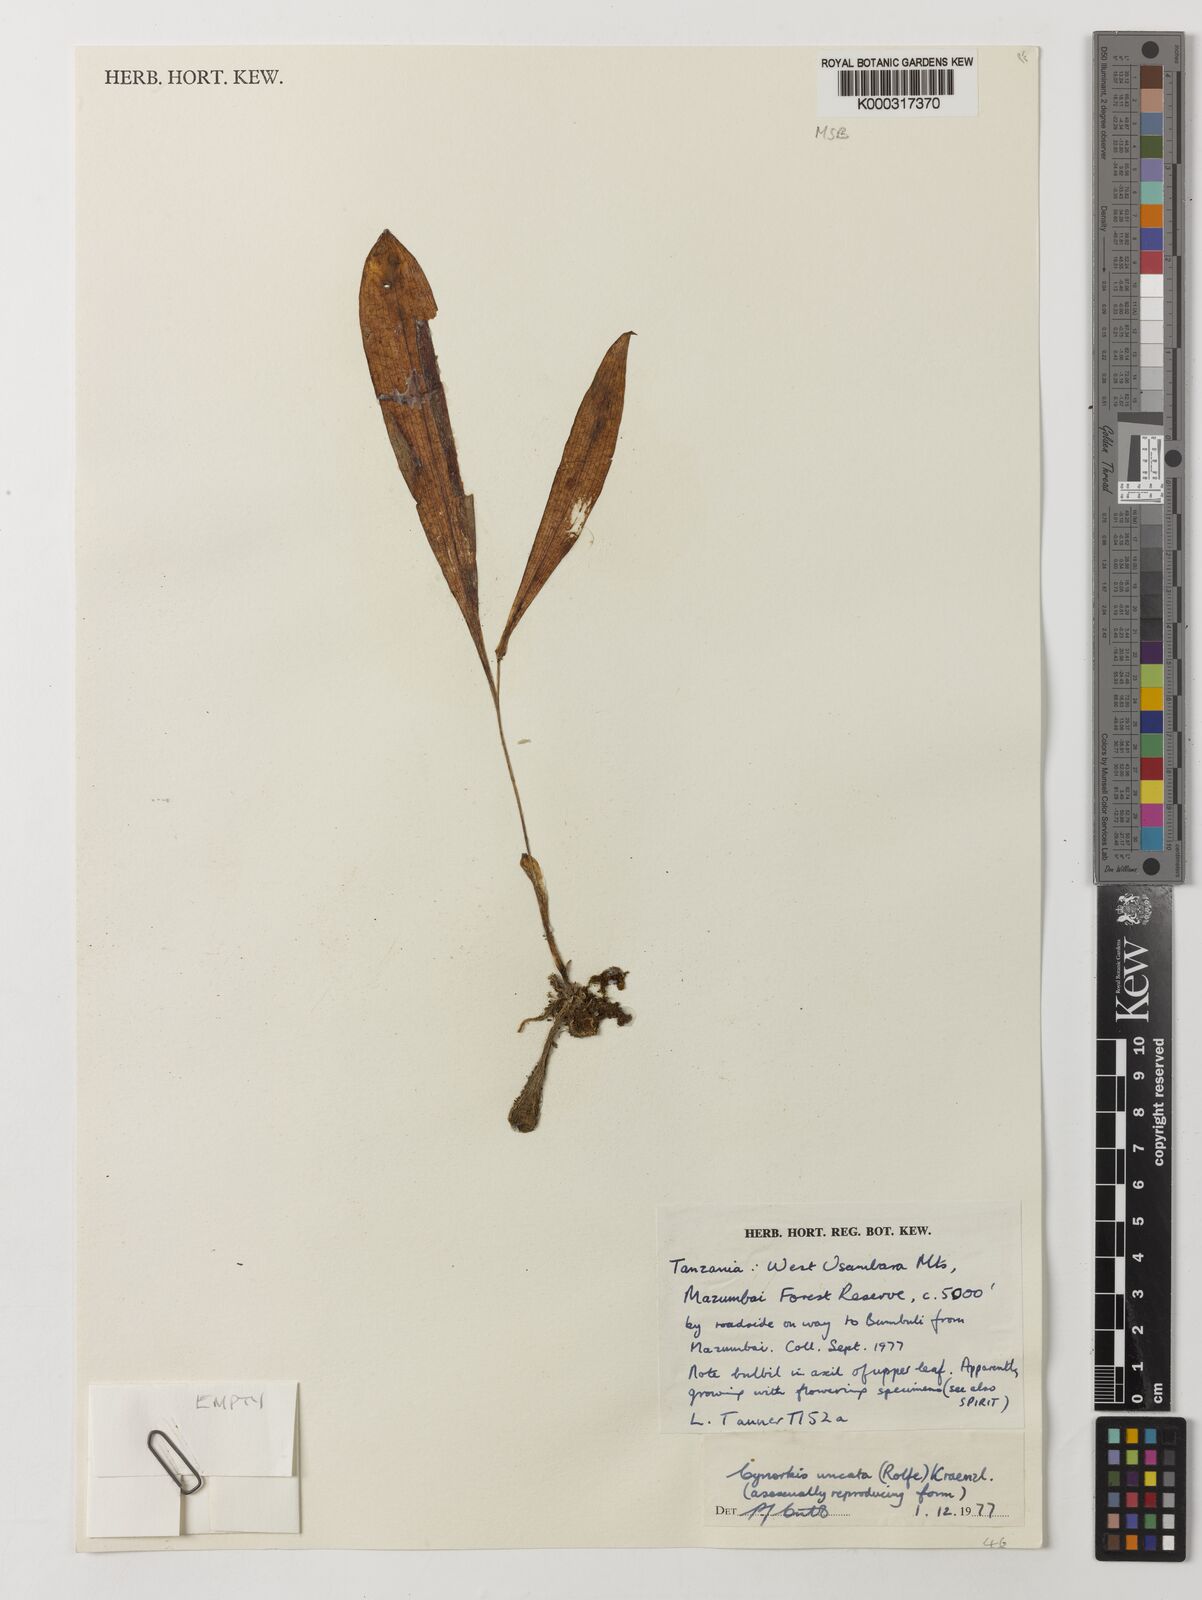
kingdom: Plantae
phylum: Tracheophyta
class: Liliopsida
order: Asparagales
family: Orchidaceae
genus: Cynorkis
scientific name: Cynorkis uncata
